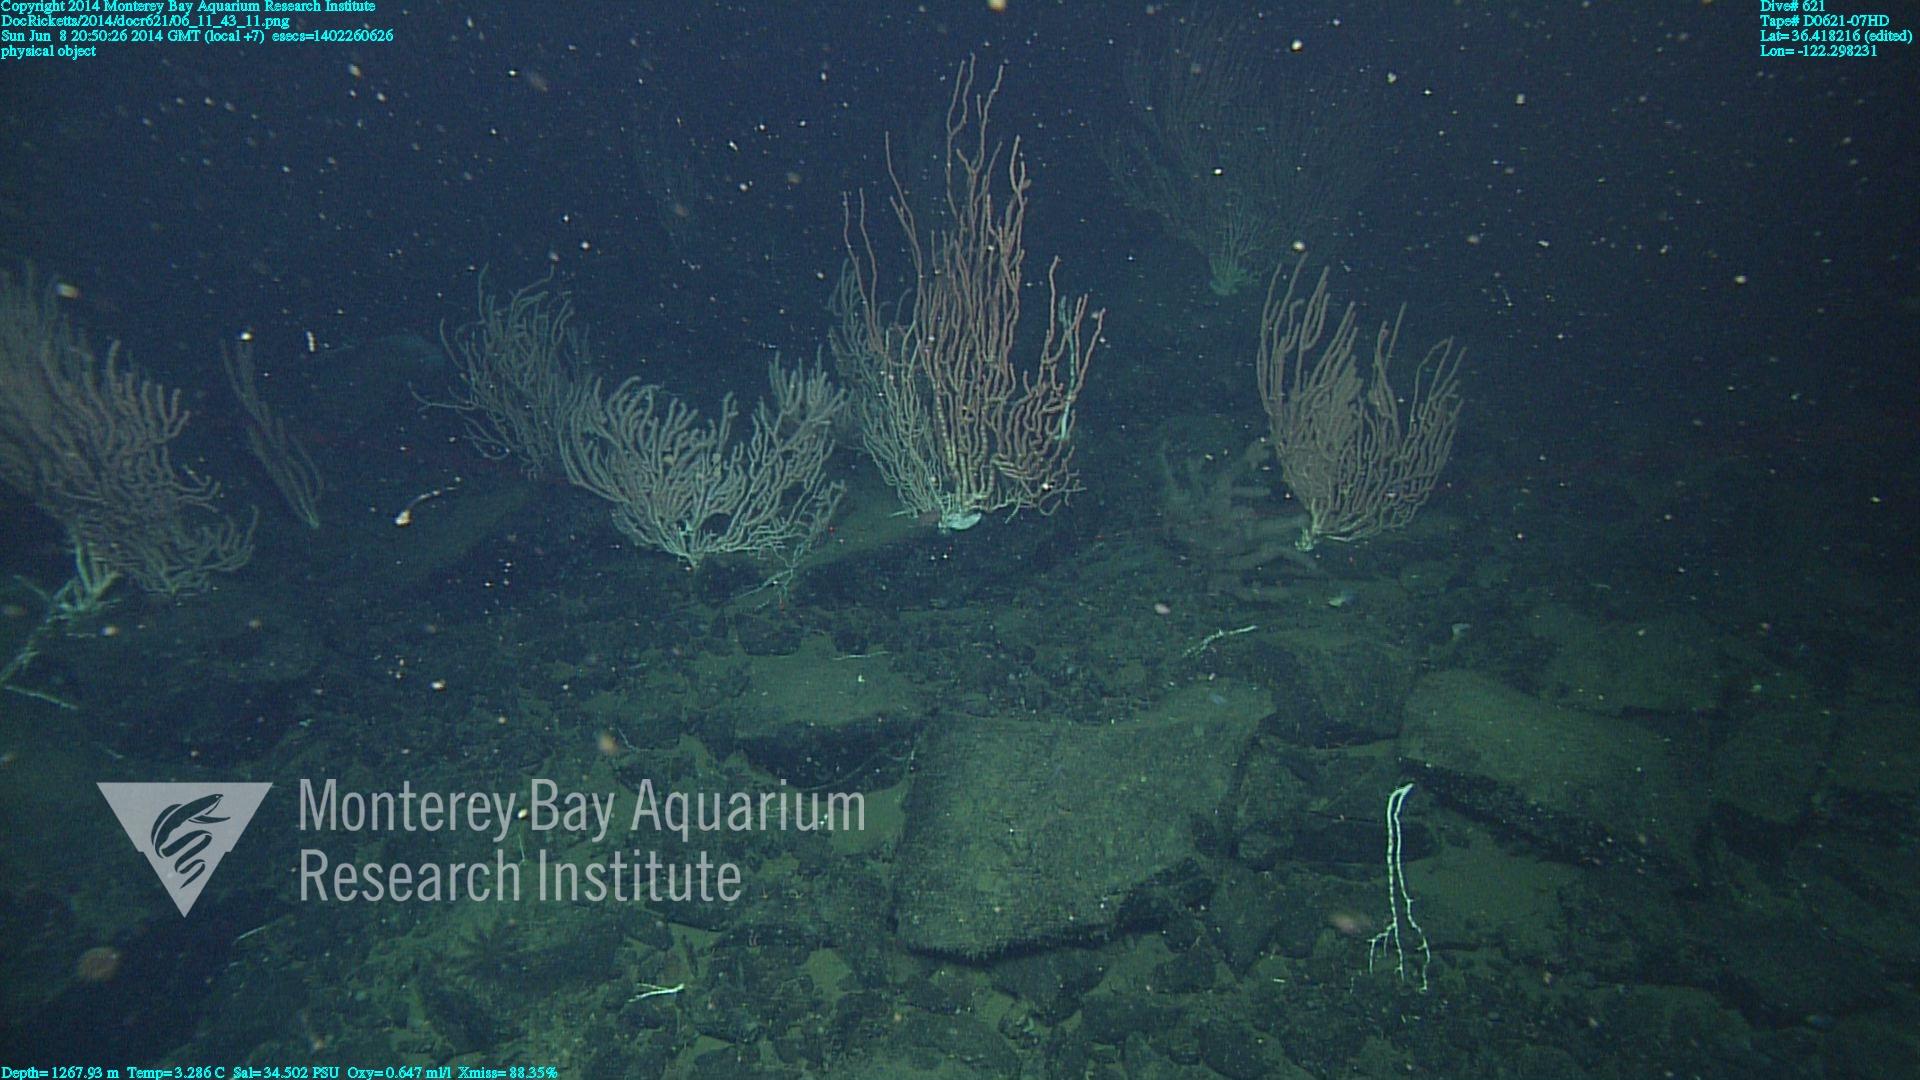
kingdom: Animalia
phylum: Cnidaria
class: Anthozoa
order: Scleralcyonacea
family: Keratoisididae
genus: Keratoisis
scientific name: Keratoisis
